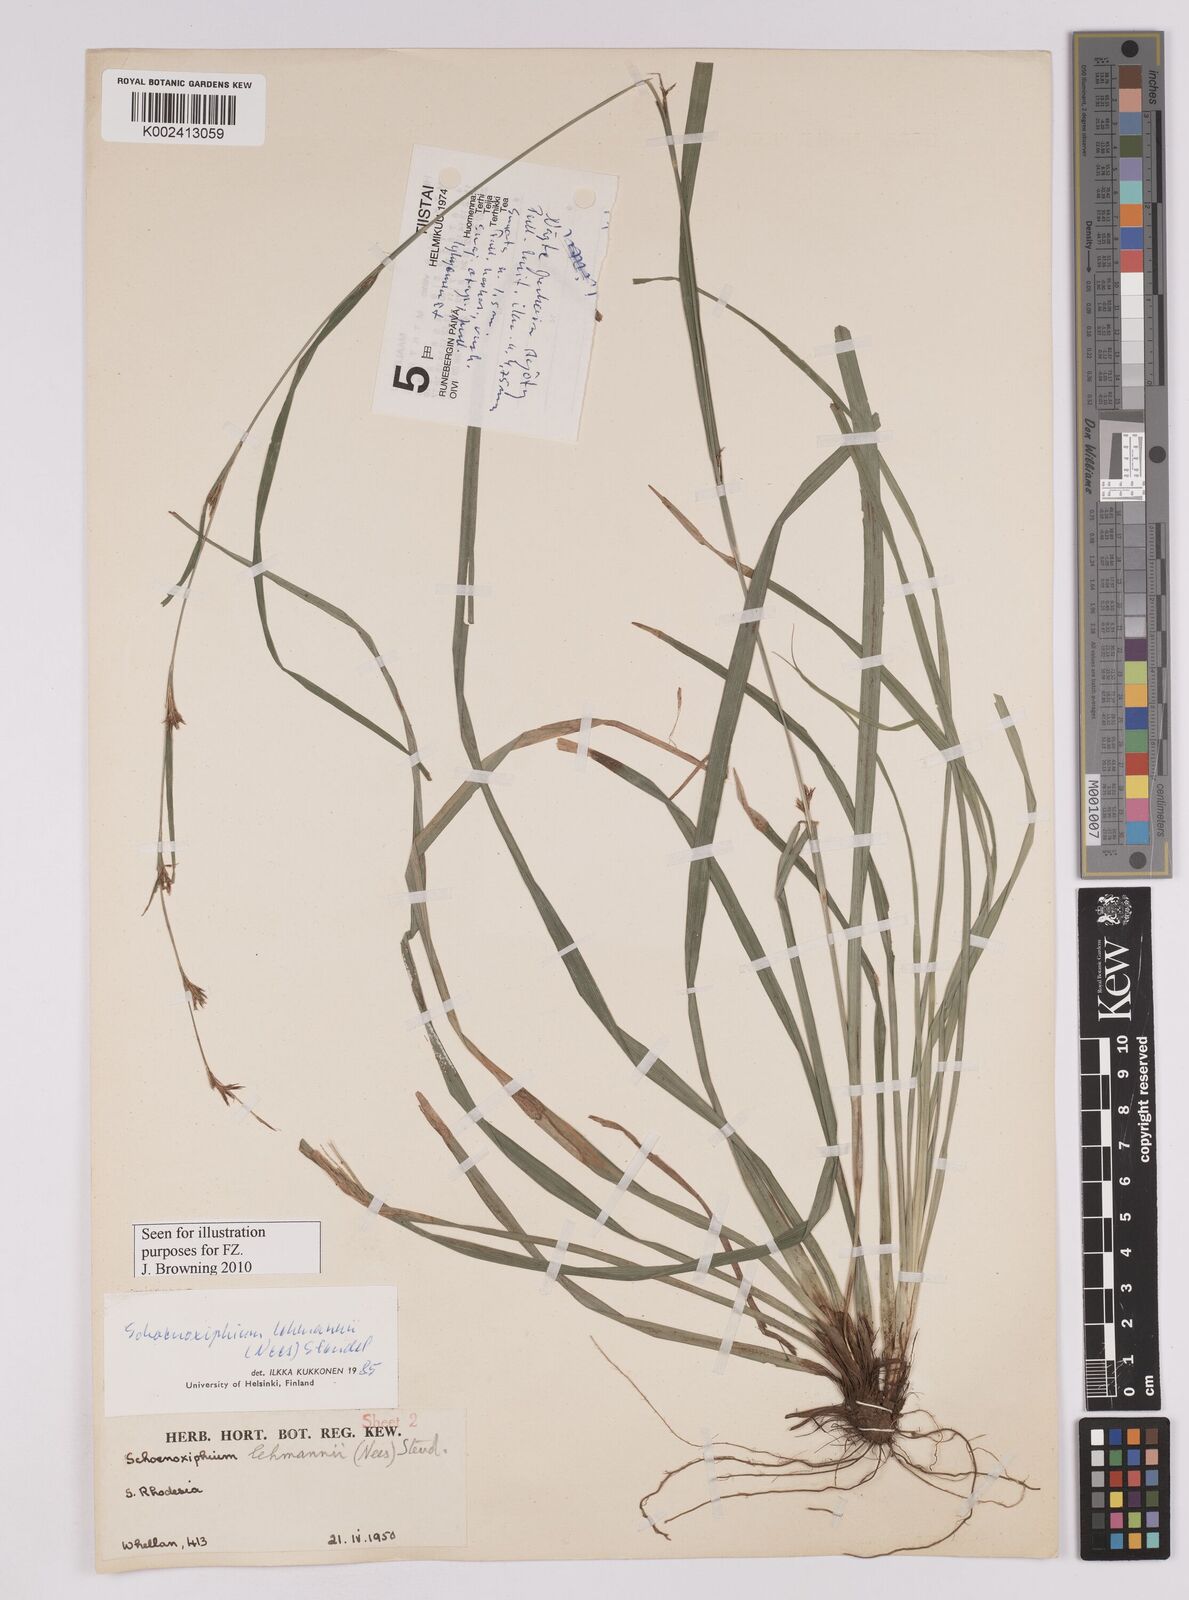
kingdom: Plantae
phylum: Tracheophyta
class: Liliopsida
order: Poales
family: Cyperaceae
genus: Carex
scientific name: Carex uhligii
